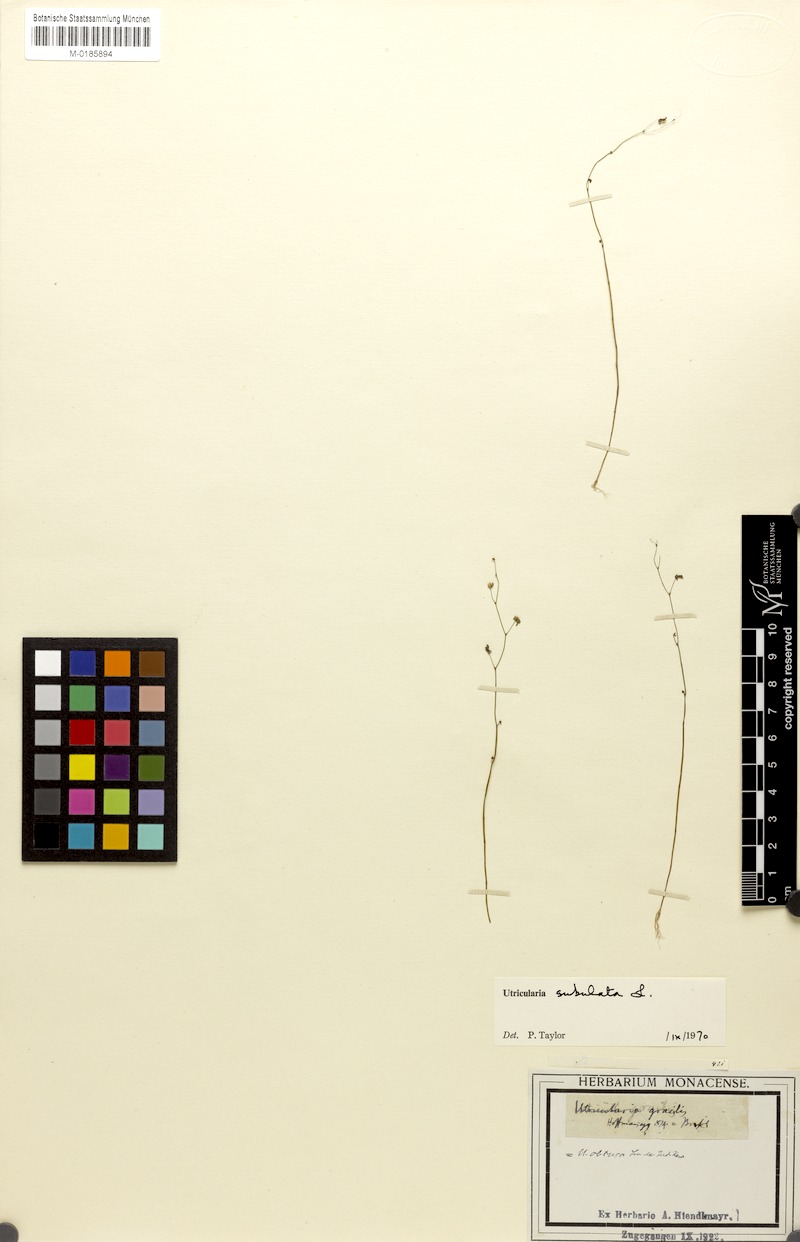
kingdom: Plantae
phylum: Tracheophyta
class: Magnoliopsida
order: Lamiales
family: Lentibulariaceae
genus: Utricularia
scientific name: Utricularia subulata
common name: Tiny bladderwort
